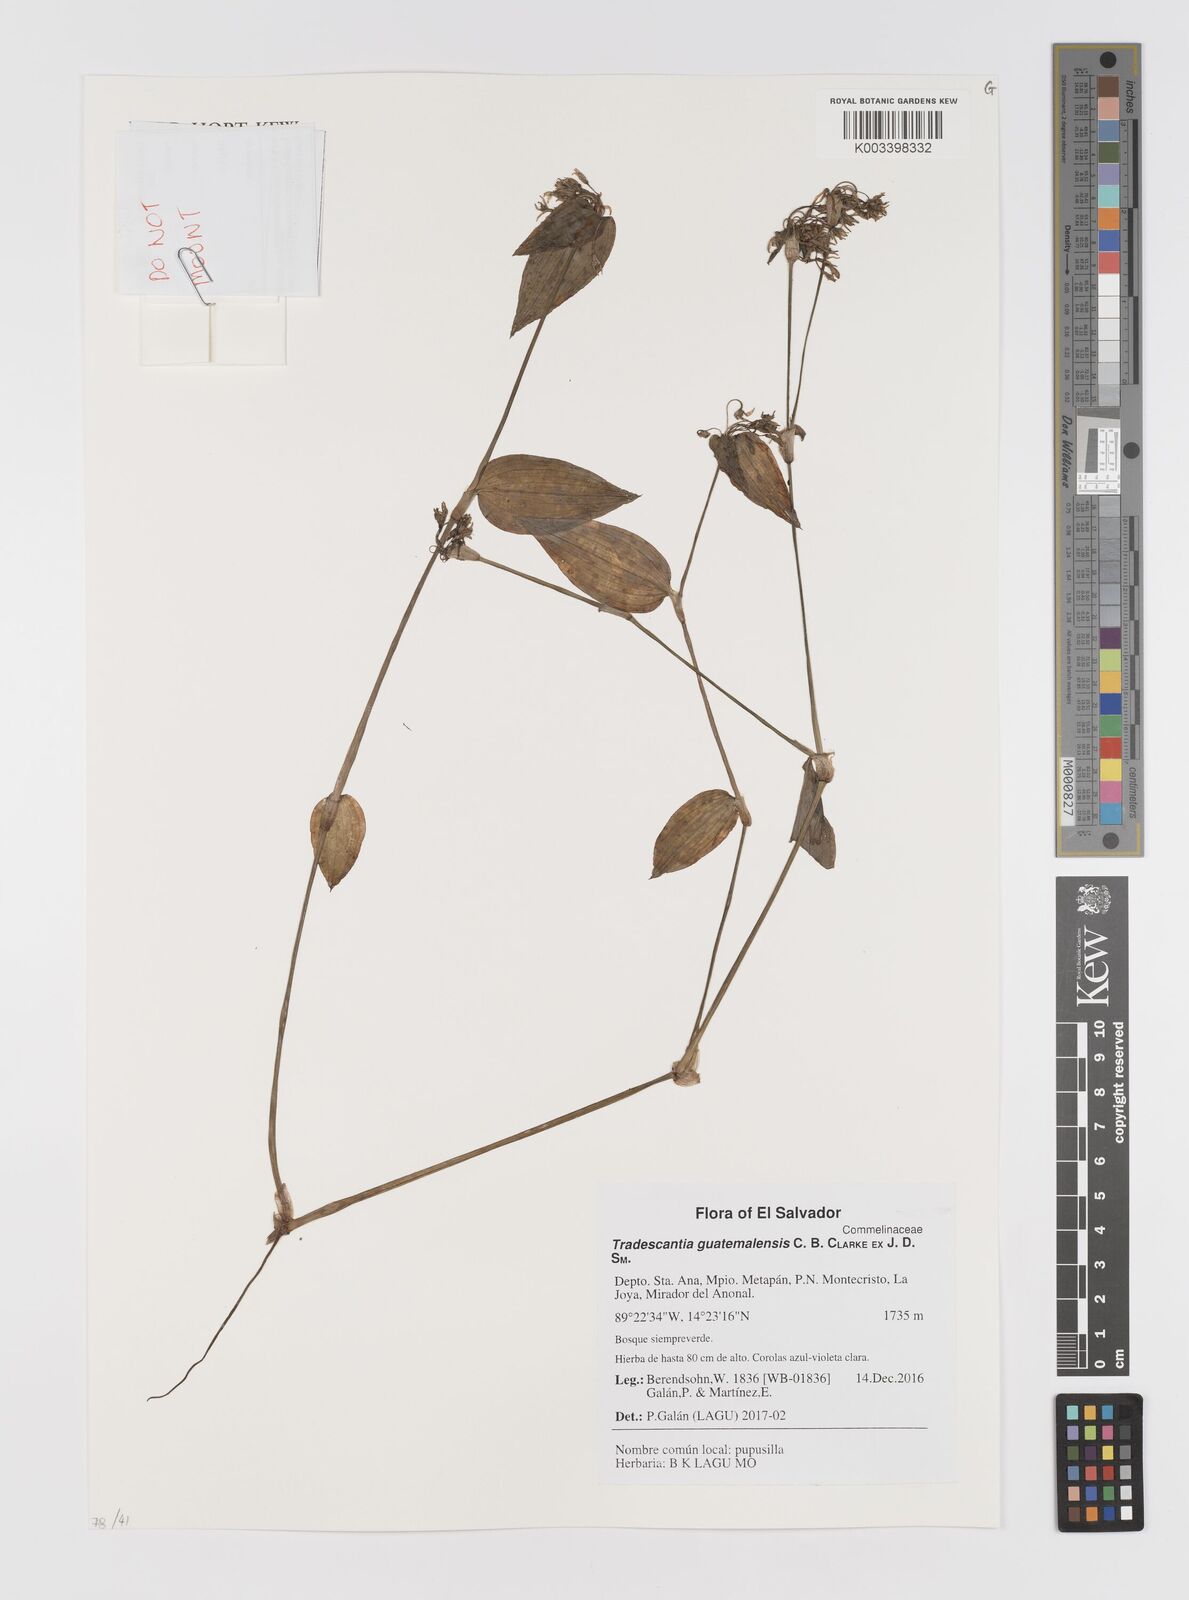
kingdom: Plantae
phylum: Tracheophyta
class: Liliopsida
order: Commelinales
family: Commelinaceae
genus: Elasis
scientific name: Elasis guatemalensis
